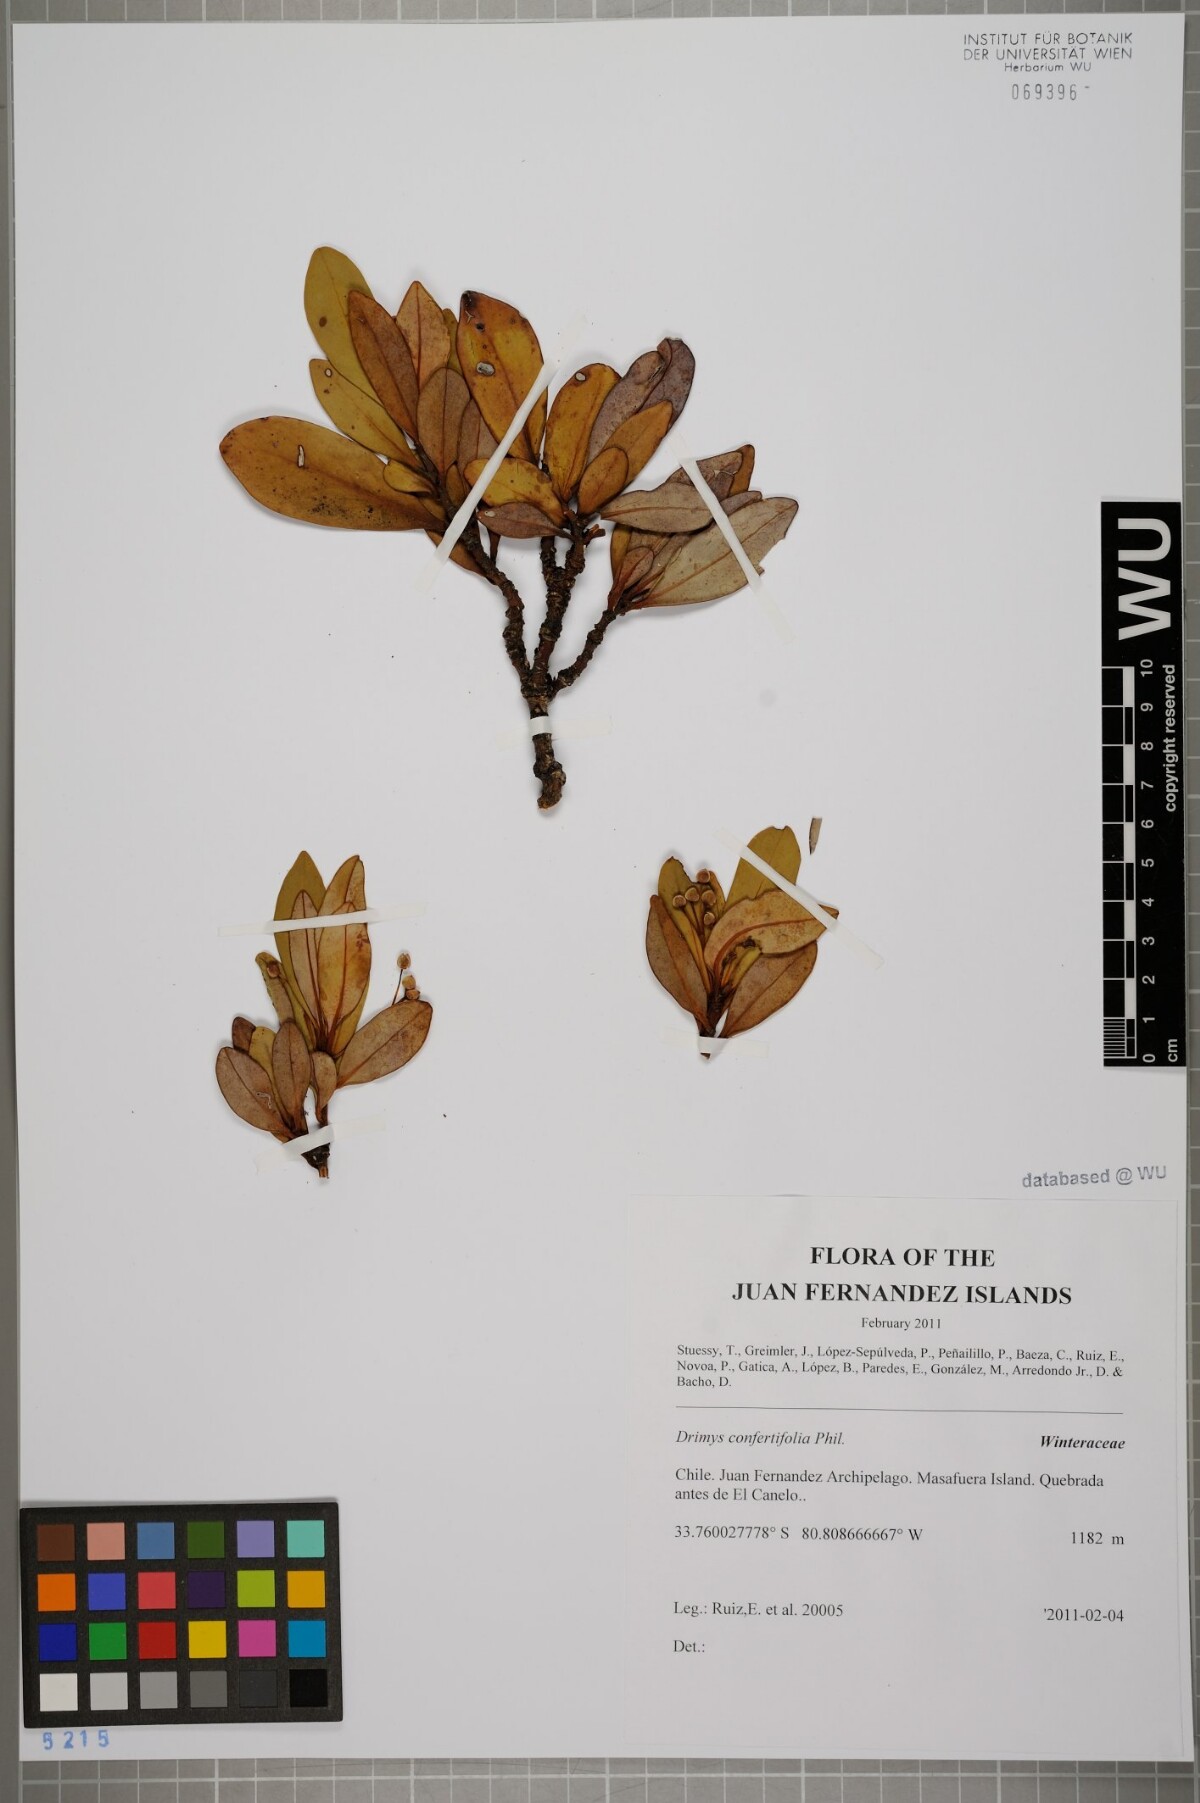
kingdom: Plantae
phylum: Tracheophyta
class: Magnoliopsida
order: Canellales
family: Winteraceae
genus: Drimys
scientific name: Drimys confertiflora
